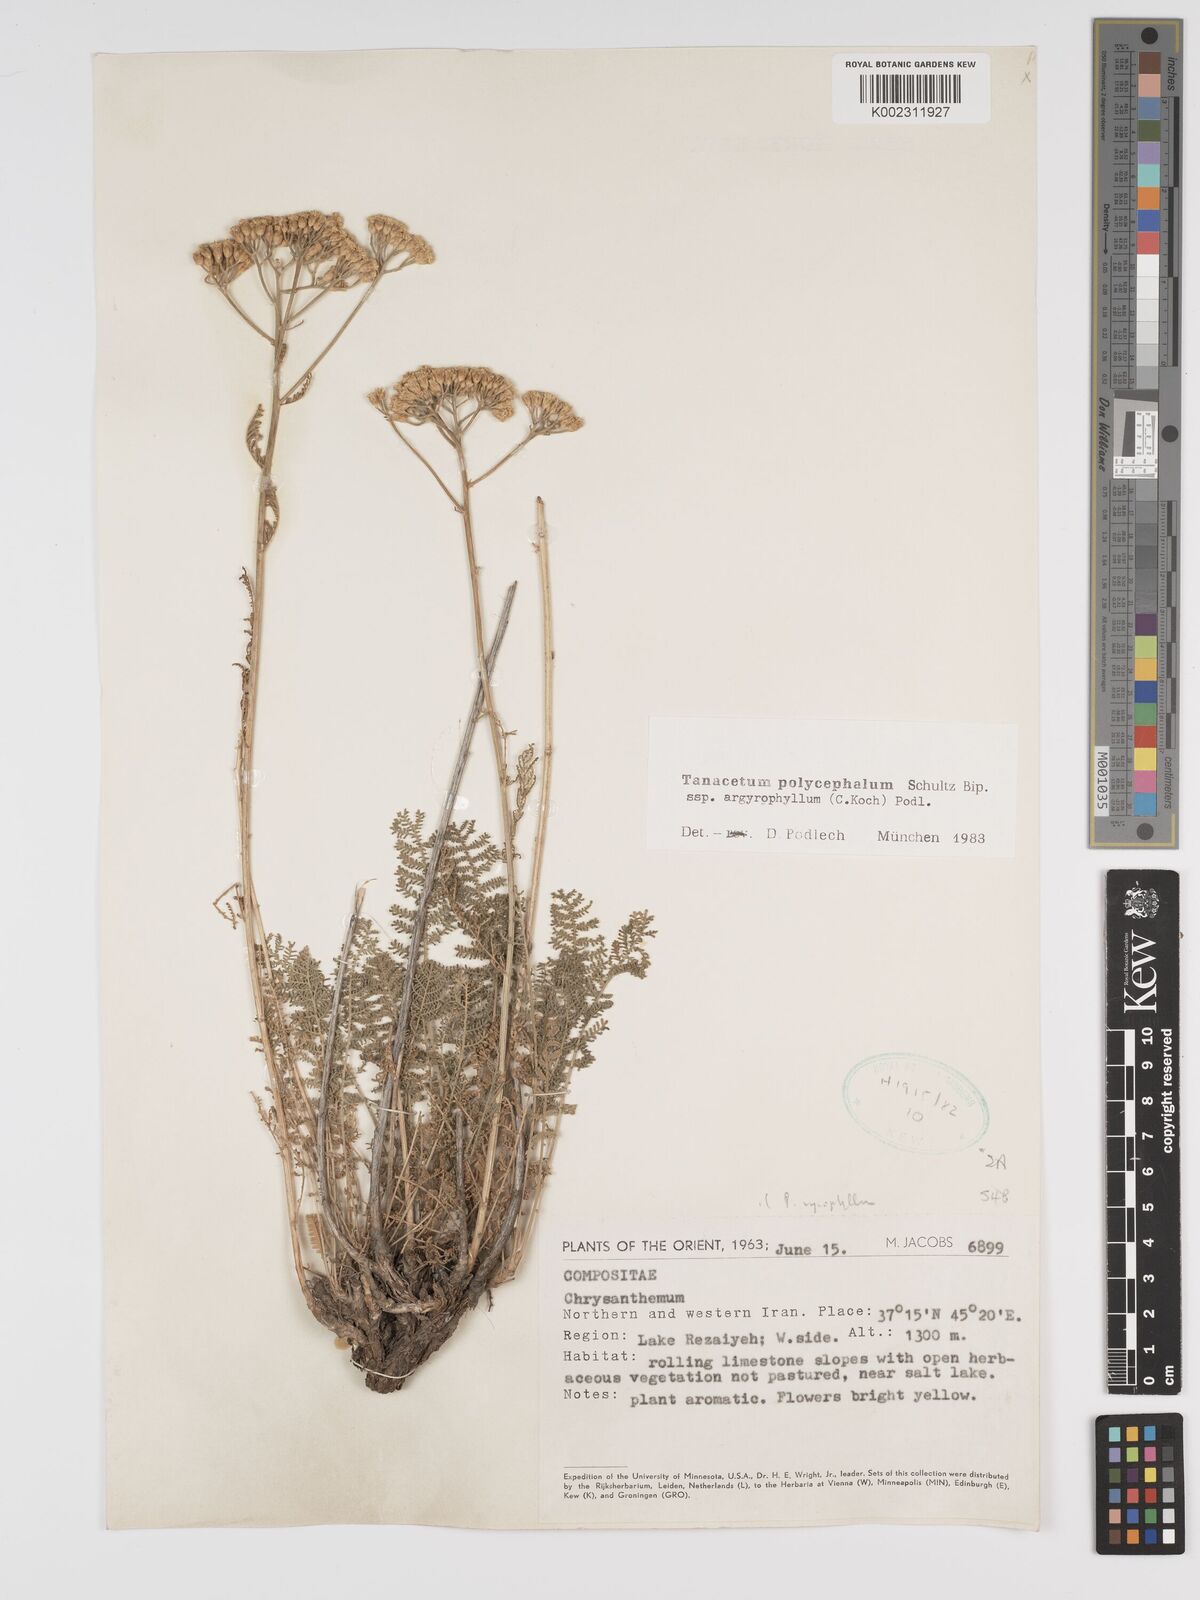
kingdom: Plantae
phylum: Tracheophyta
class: Magnoliopsida
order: Asterales
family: Asteraceae
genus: Tanacetum
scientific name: Tanacetum polycephalum
